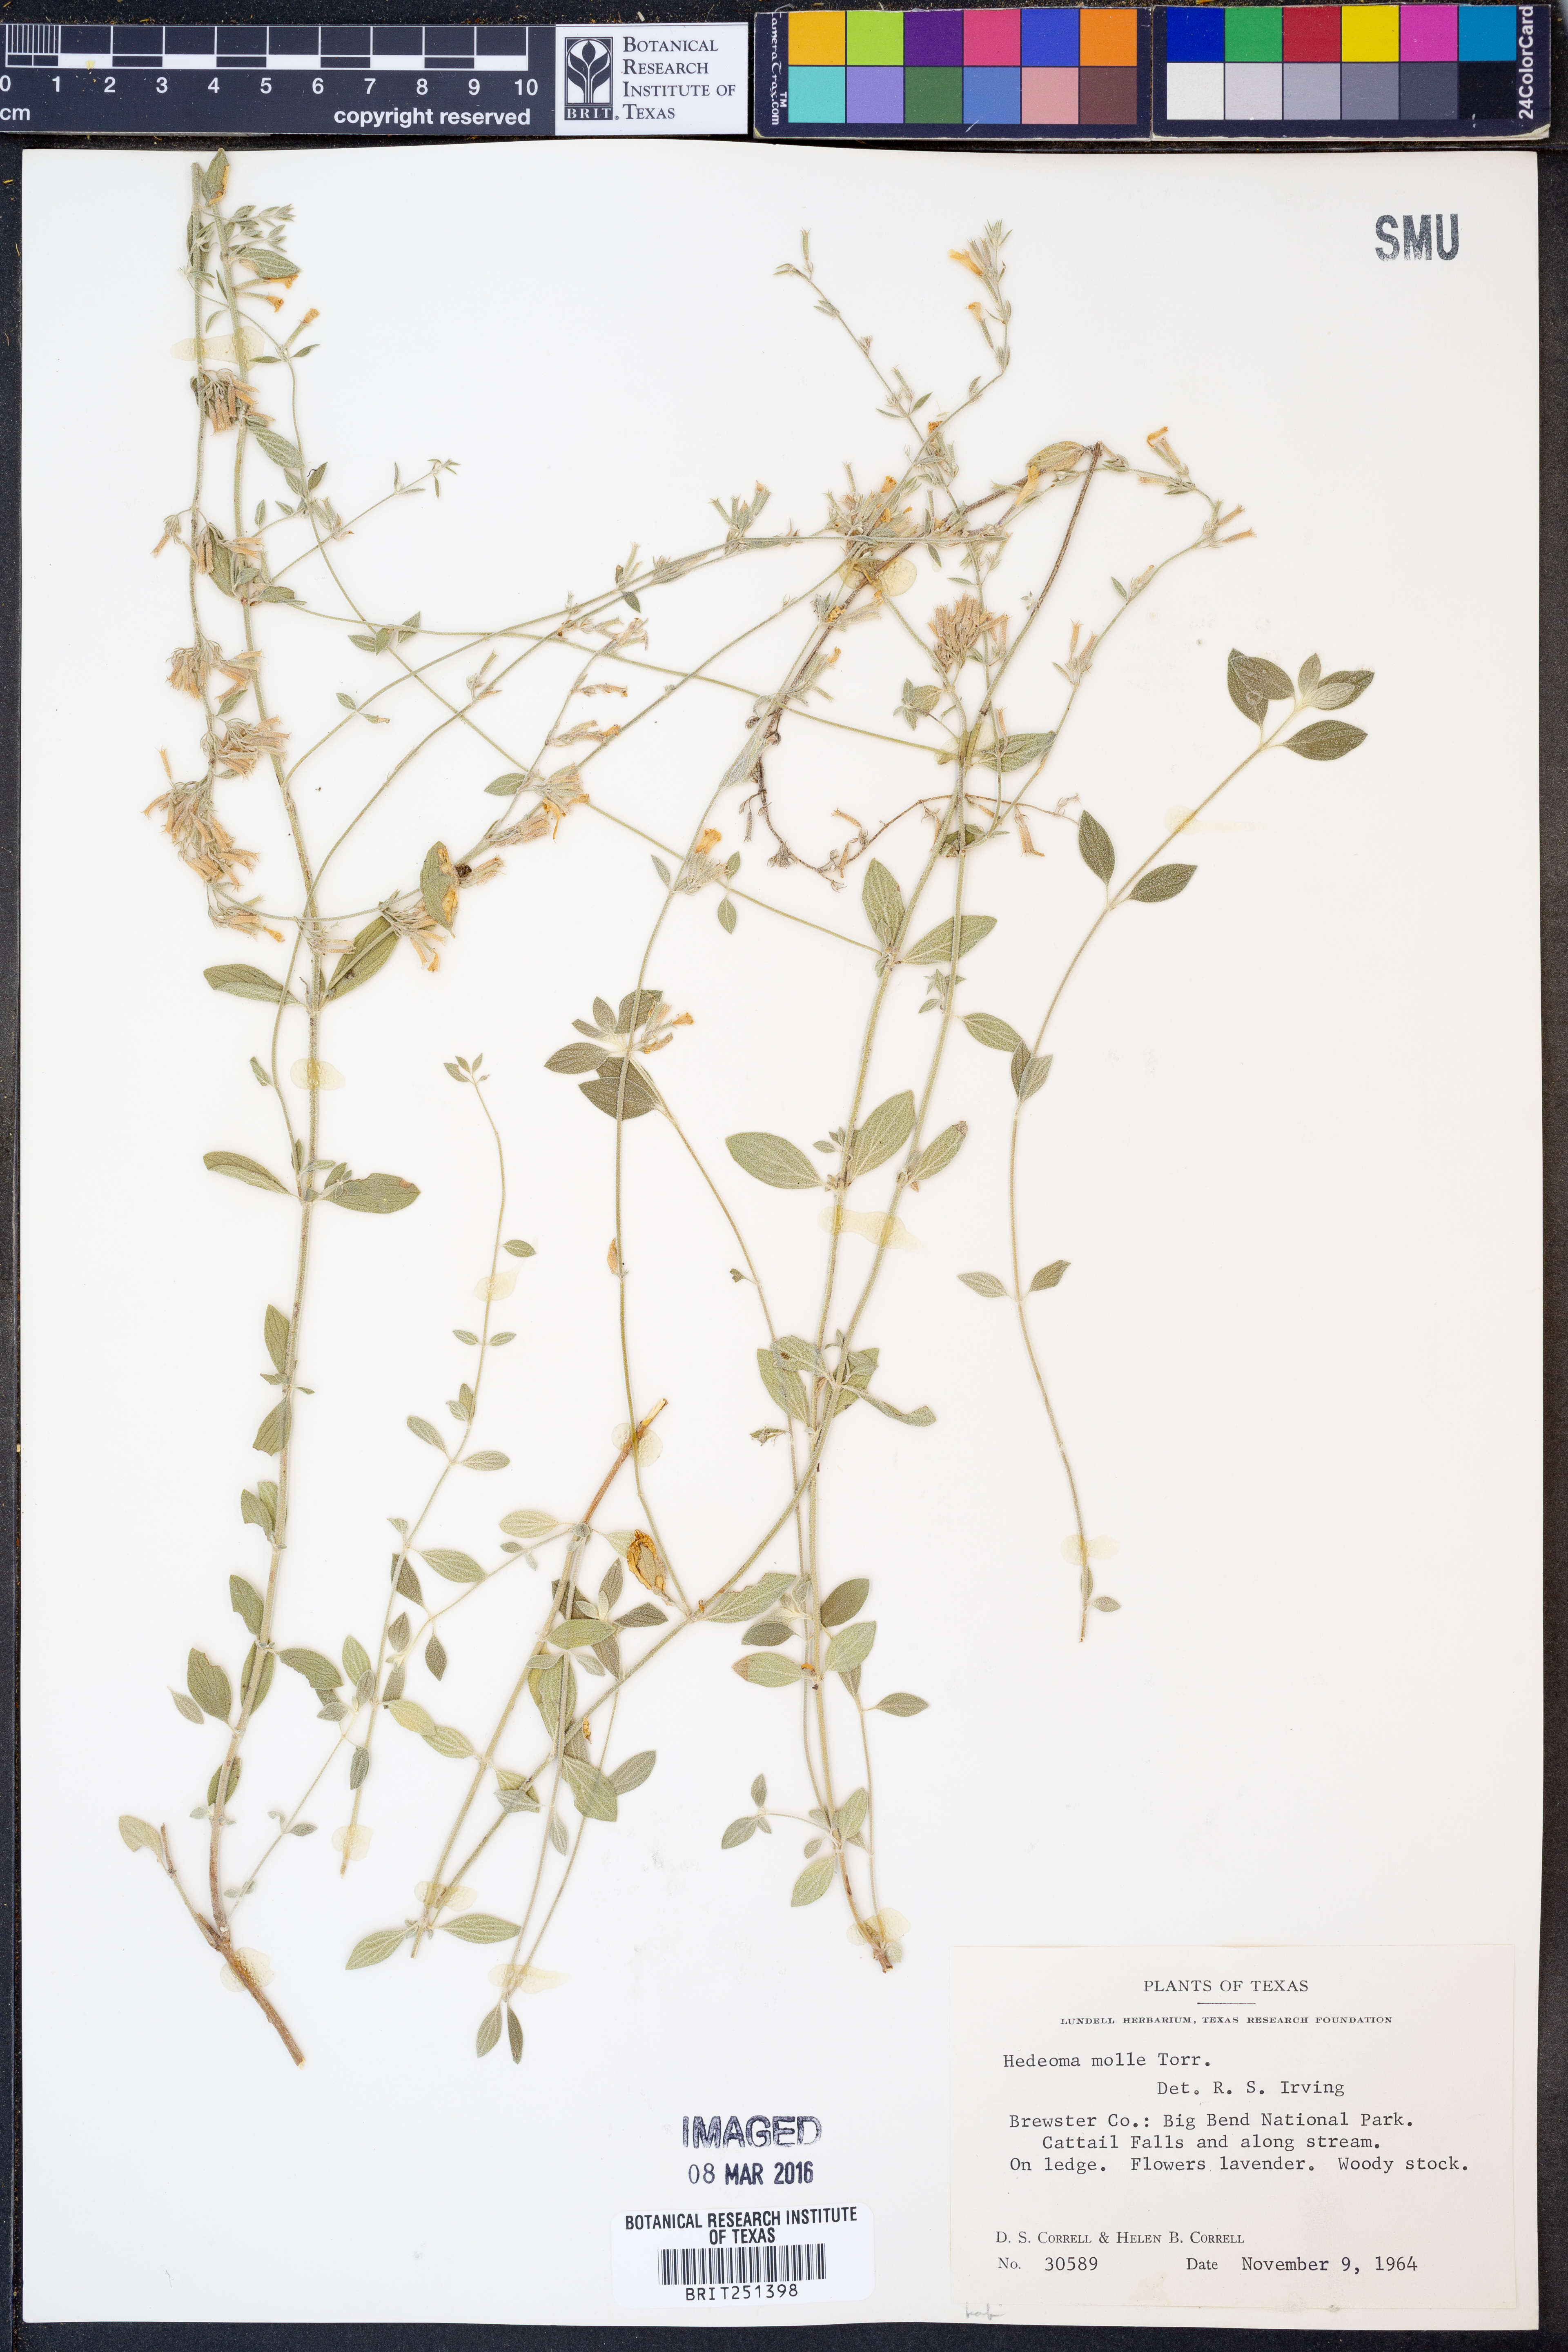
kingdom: Plantae
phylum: Tracheophyta
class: Magnoliopsida
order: Lamiales
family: Lamiaceae
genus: Hedeoma
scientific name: Hedeoma mollis
